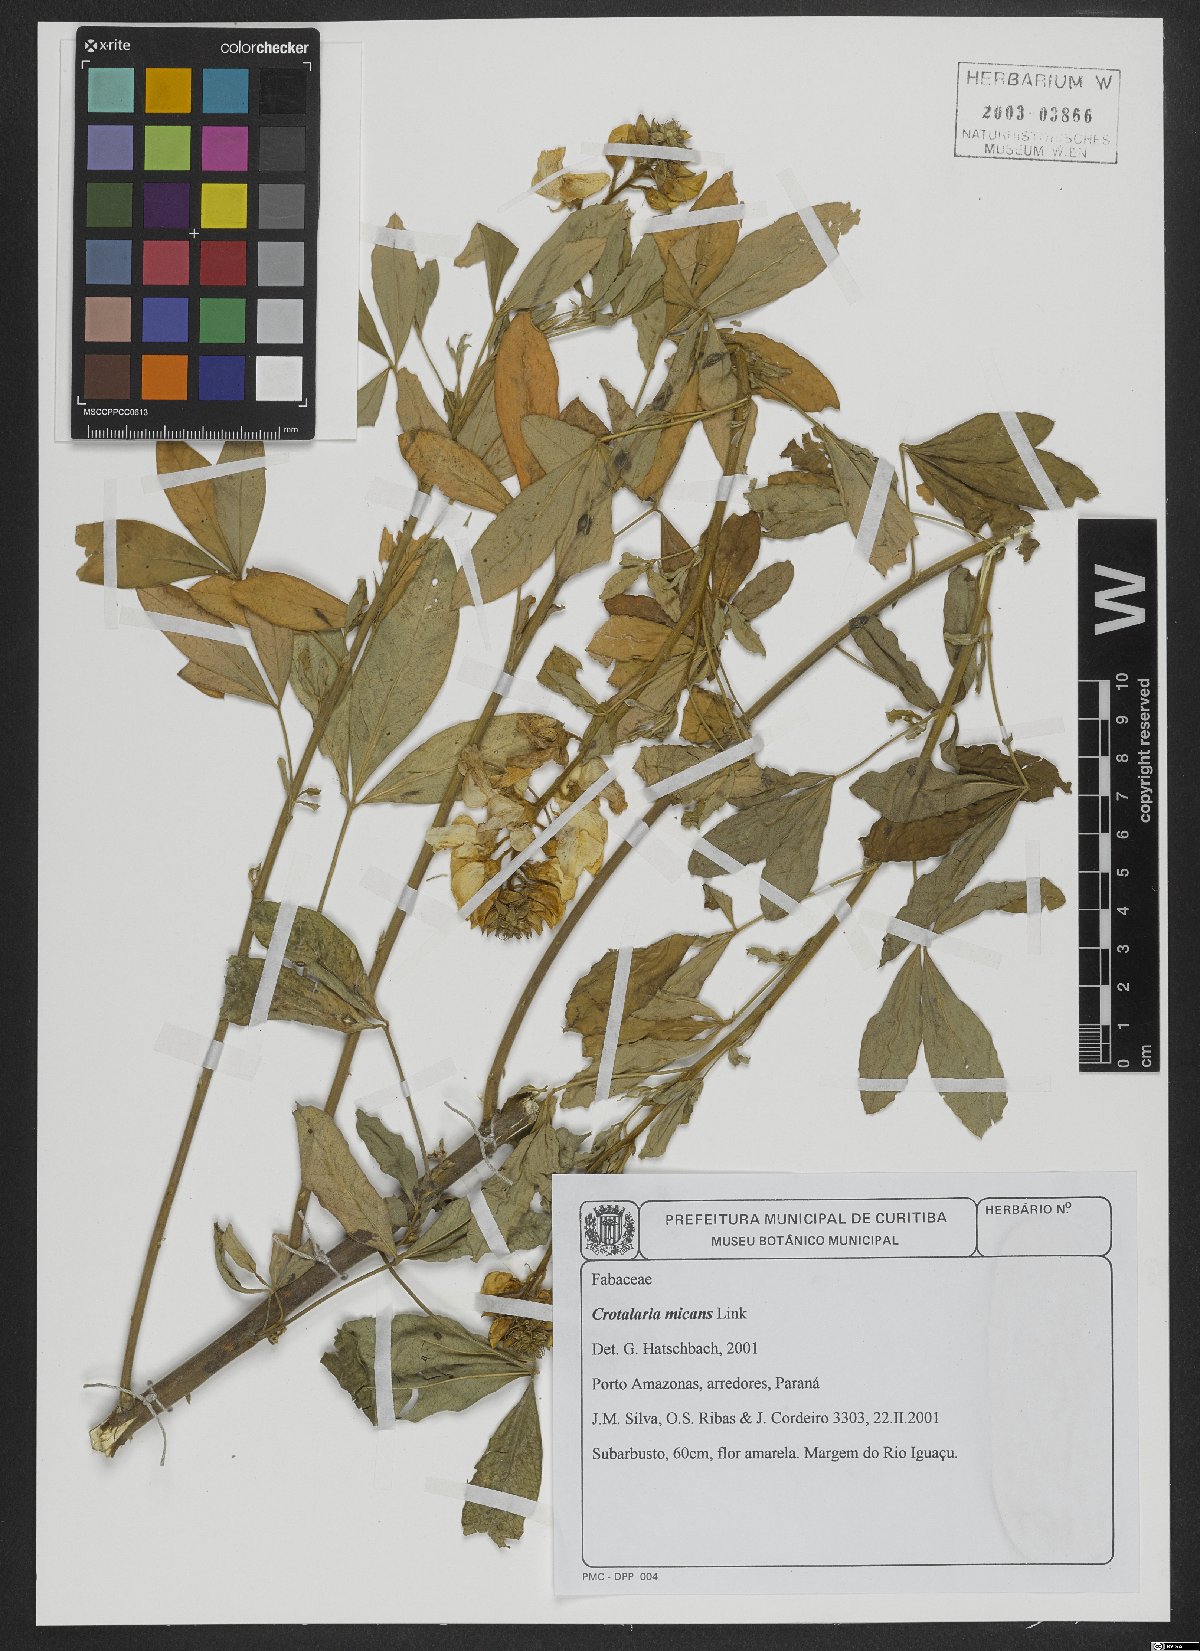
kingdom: Plantae
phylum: Tracheophyta
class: Magnoliopsida
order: Fabales
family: Fabaceae
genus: Crotalaria
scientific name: Crotalaria micans
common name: Caracas rattlebox
